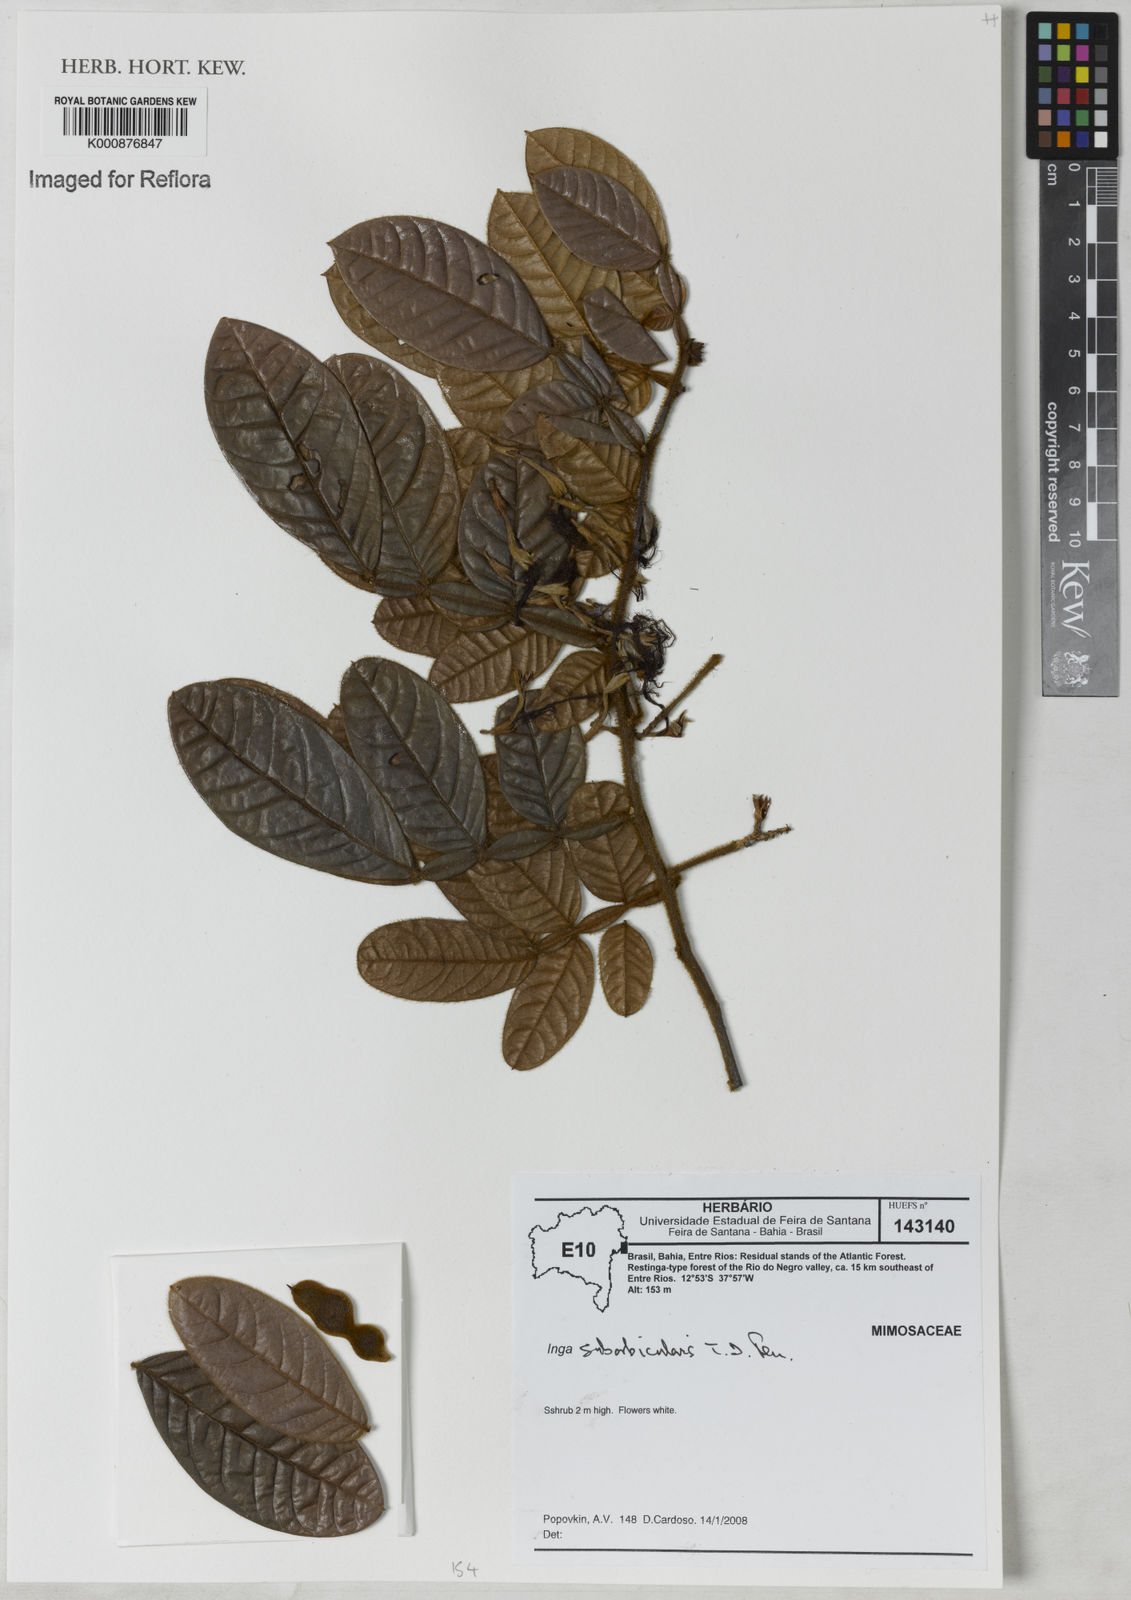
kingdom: Plantae
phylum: Tracheophyta
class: Magnoliopsida
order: Fabales
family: Fabaceae
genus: Inga
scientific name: Inga suborbicularis
